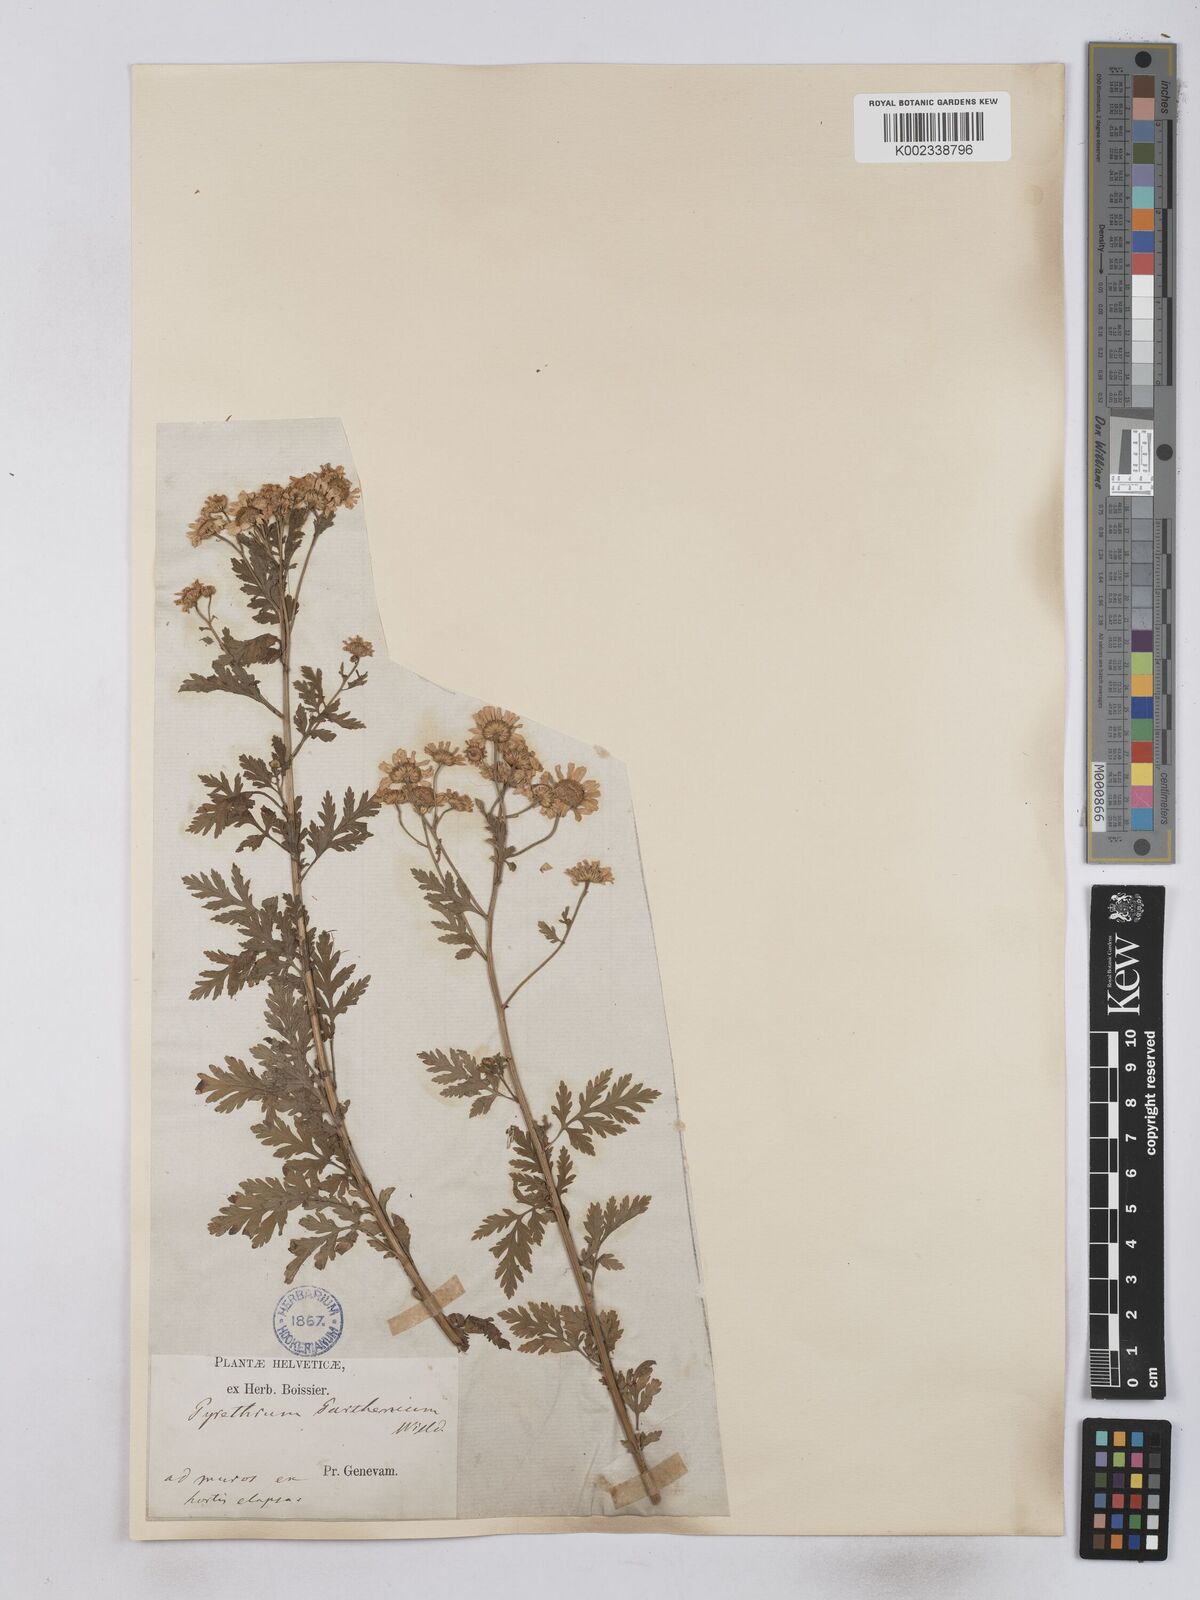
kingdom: Plantae
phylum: Tracheophyta
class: Magnoliopsida
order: Asterales
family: Asteraceae
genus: Tanacetum
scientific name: Tanacetum parthenium
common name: Feverfew
